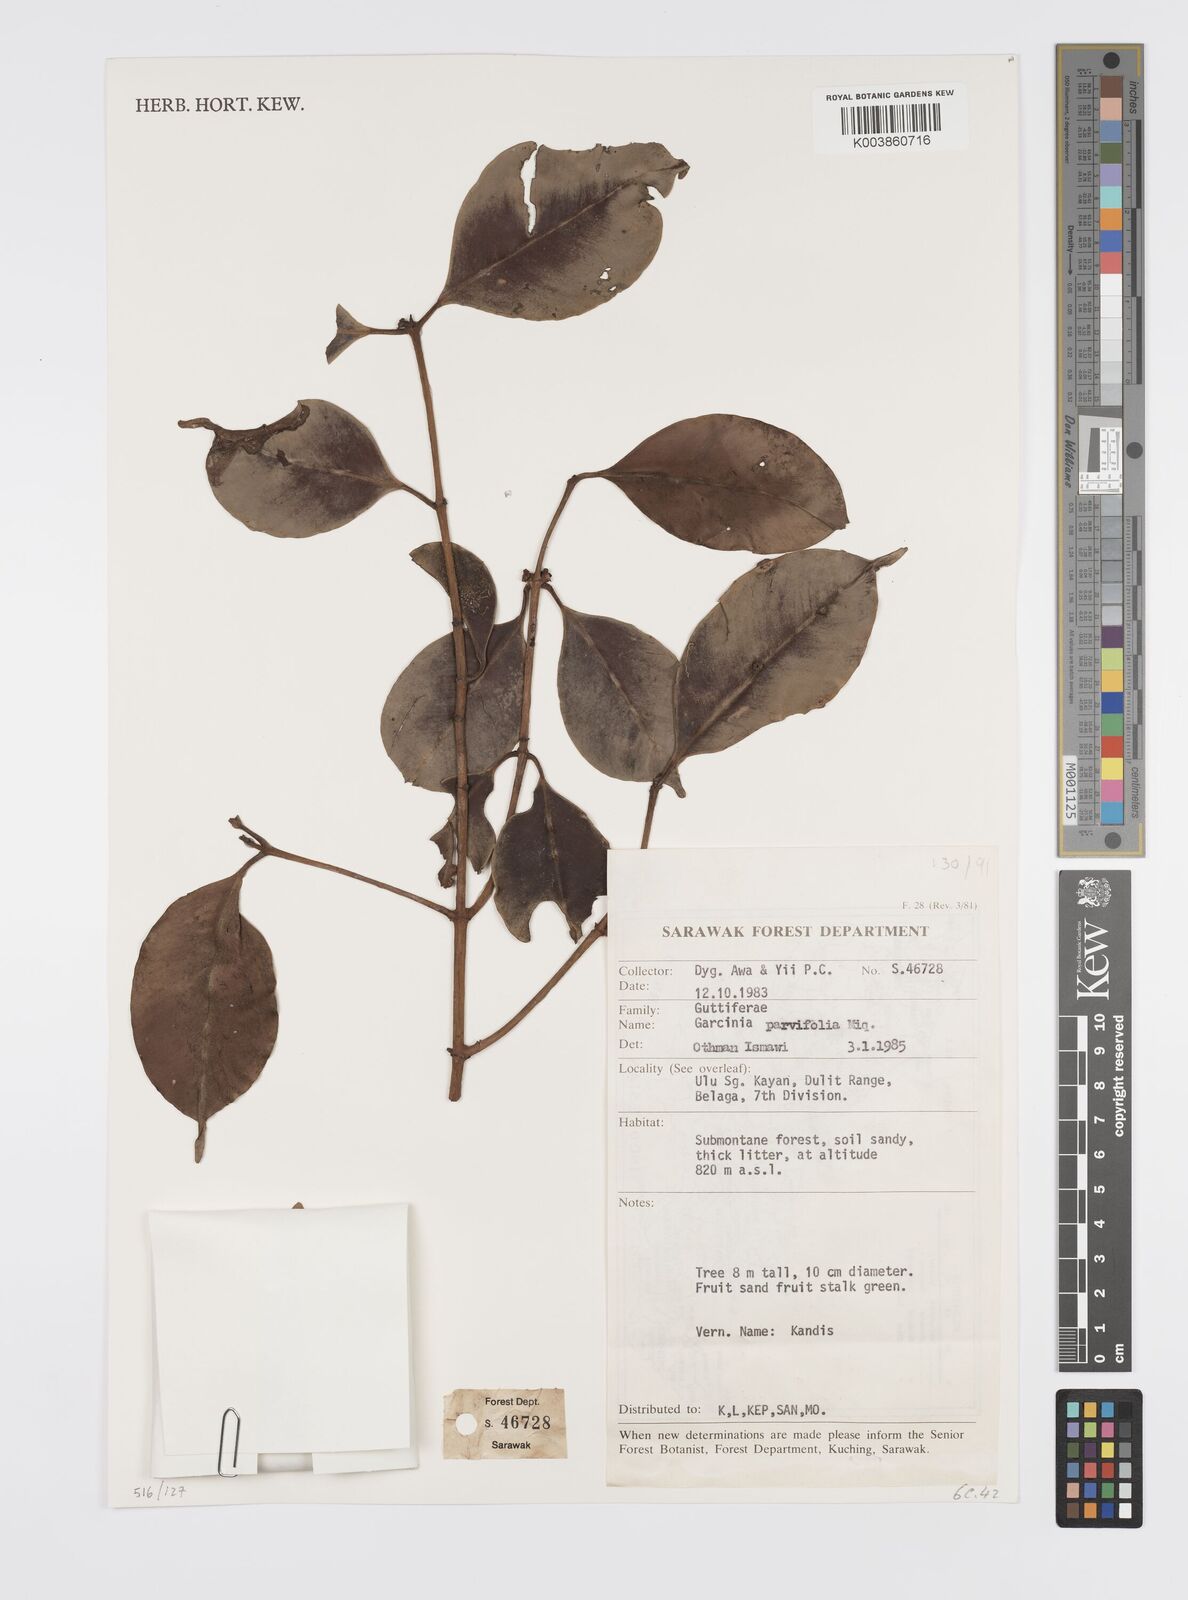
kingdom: Plantae
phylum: Tracheophyta
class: Magnoliopsida
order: Malpighiales
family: Clusiaceae
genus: Garcinia
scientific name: Garcinia parvifolia
